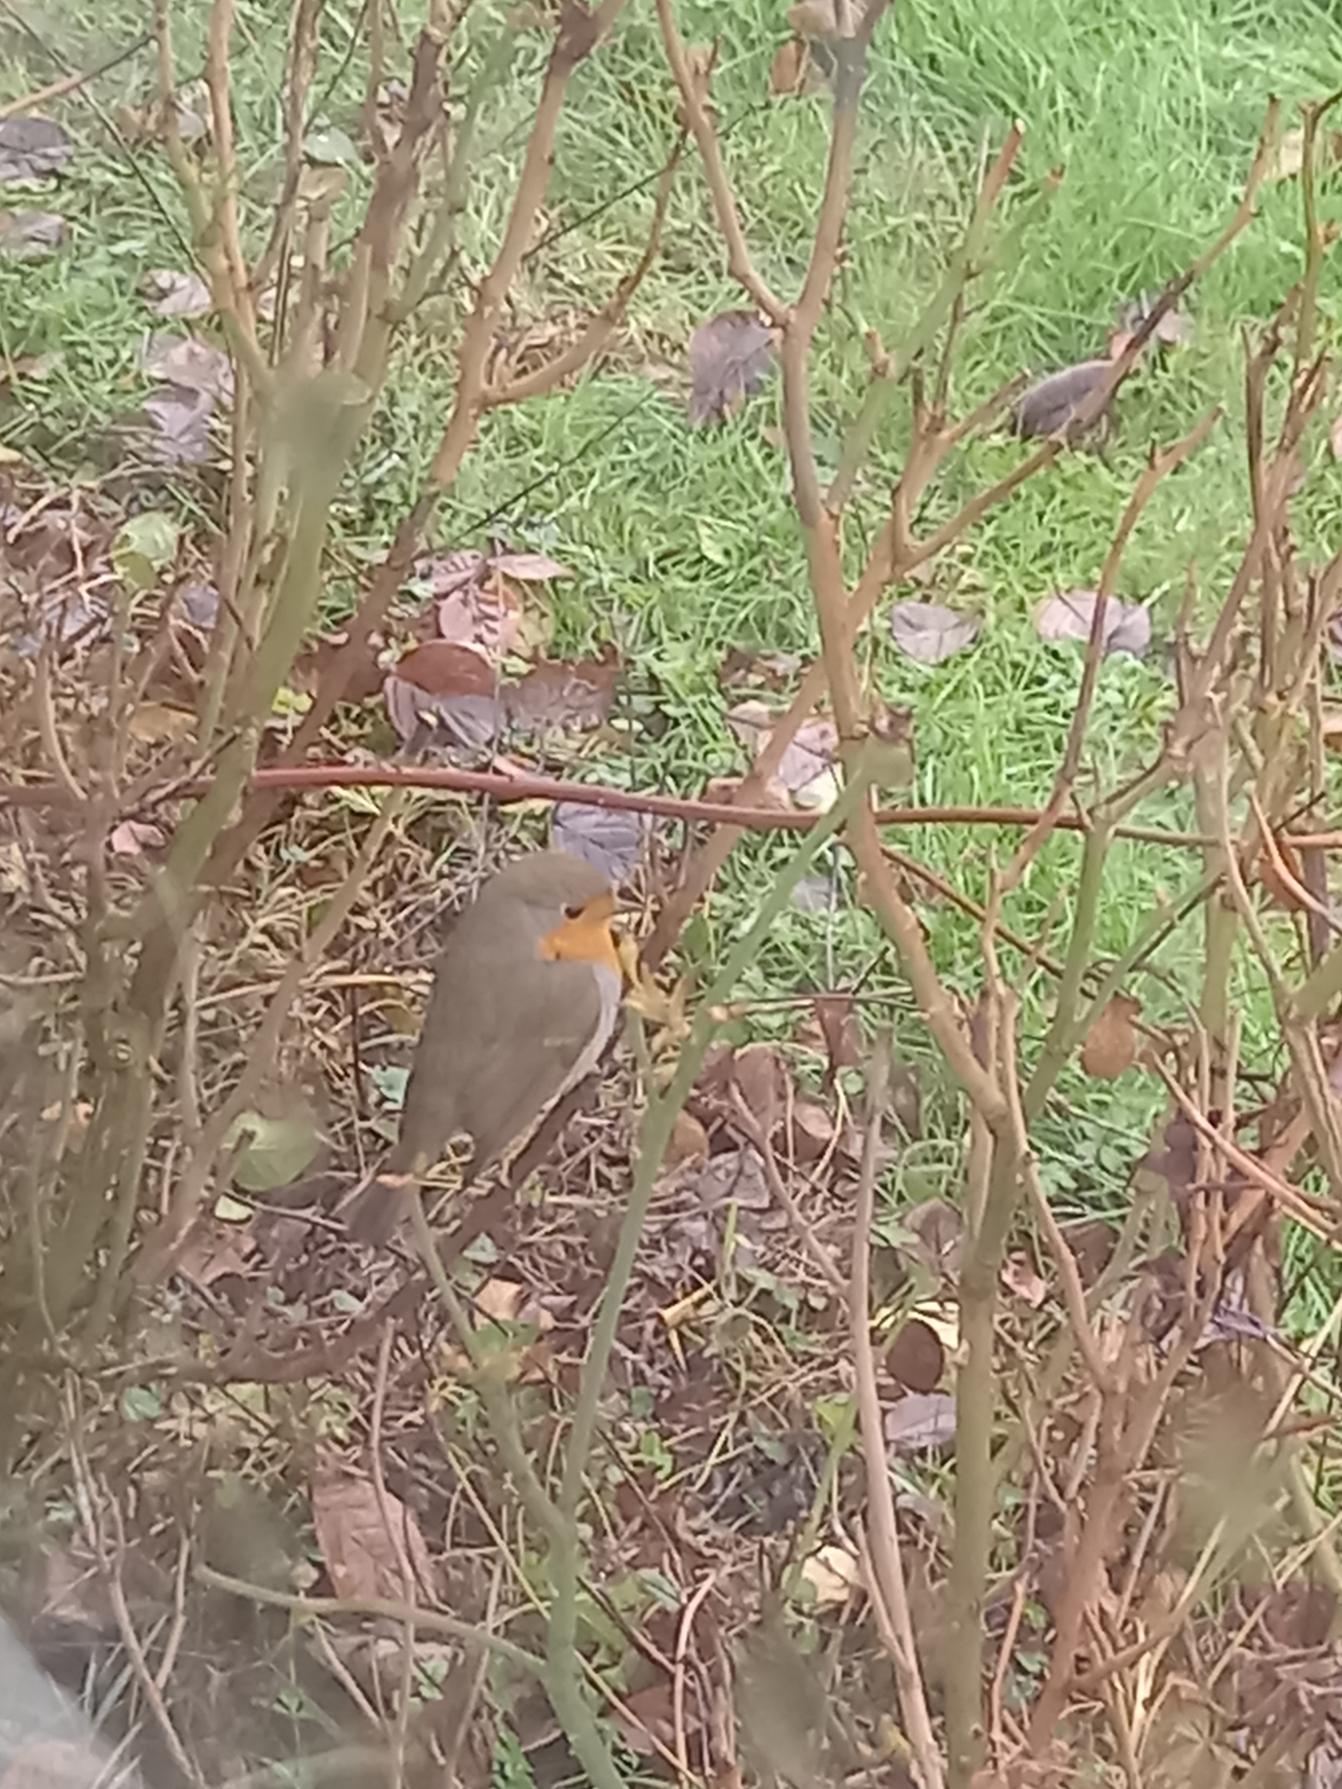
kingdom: Animalia
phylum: Chordata
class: Aves
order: Passeriformes
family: Muscicapidae
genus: Erithacus
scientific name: Erithacus rubecula
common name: Rødhals/rødkælk
